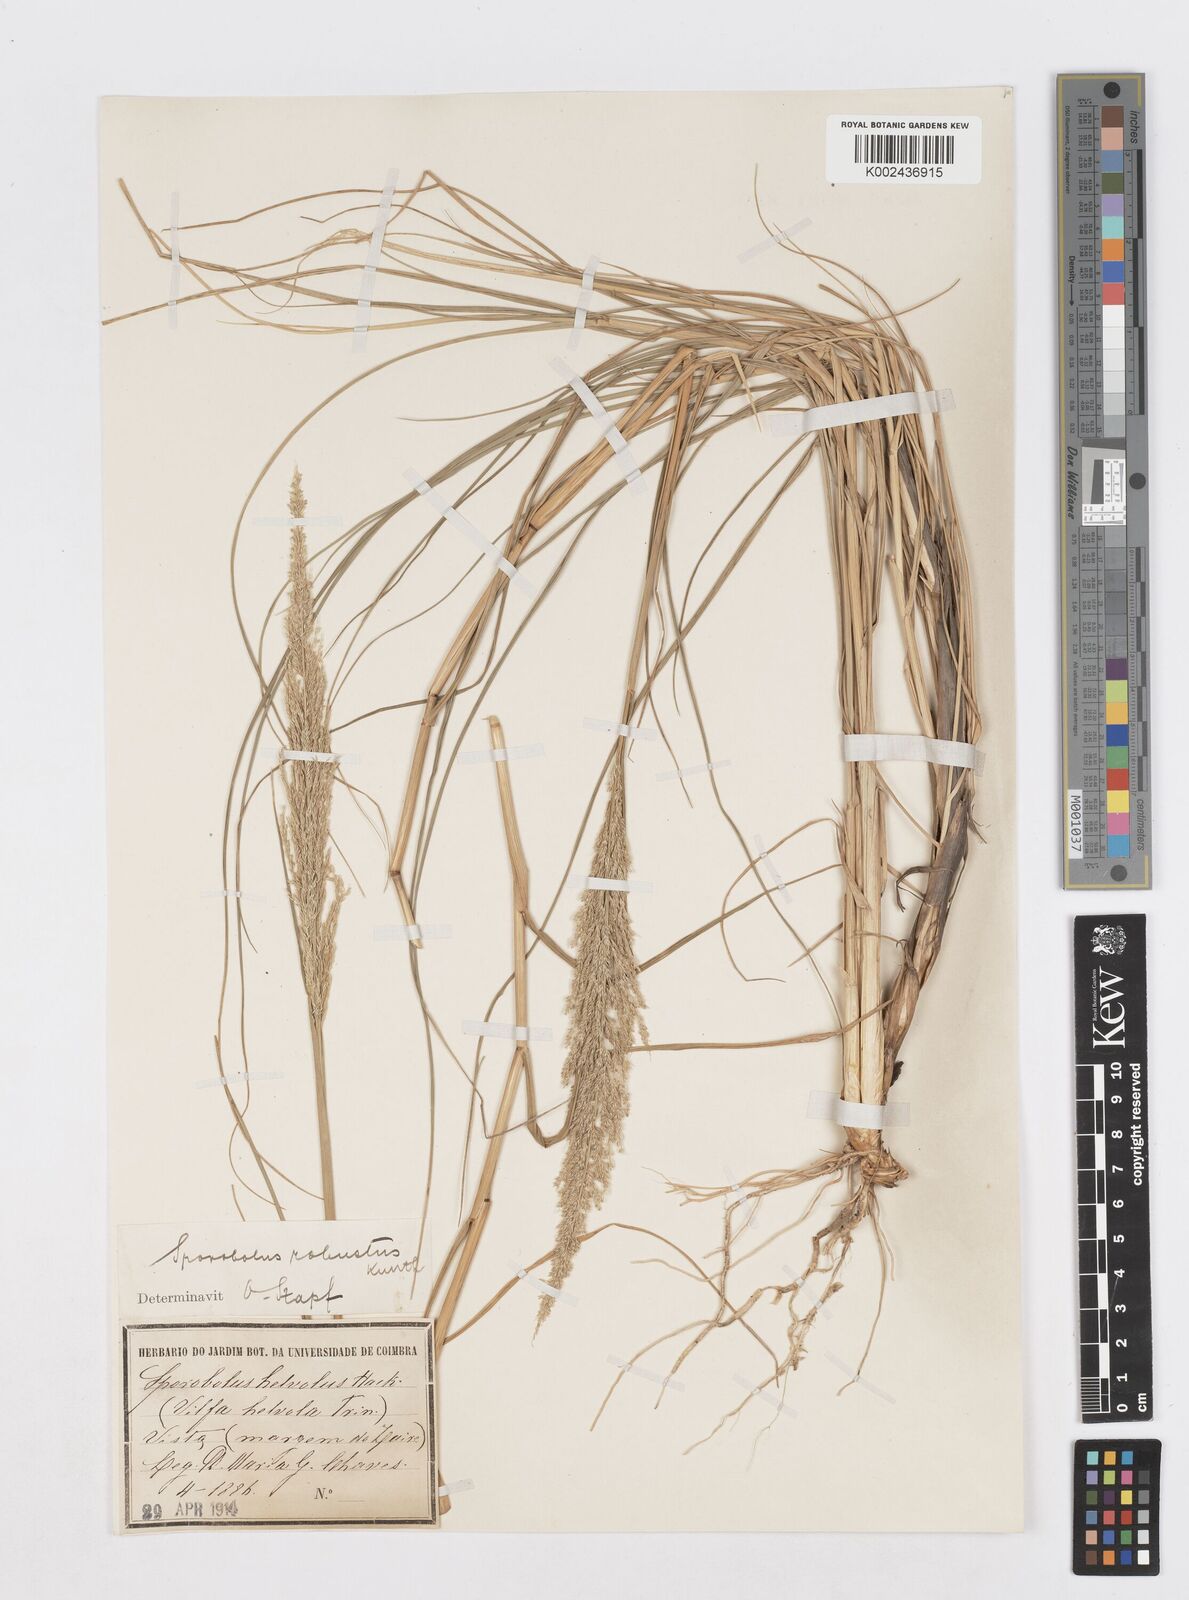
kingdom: Plantae
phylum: Tracheophyta
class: Liliopsida
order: Poales
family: Poaceae
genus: Sporobolus
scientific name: Sporobolus robustus
